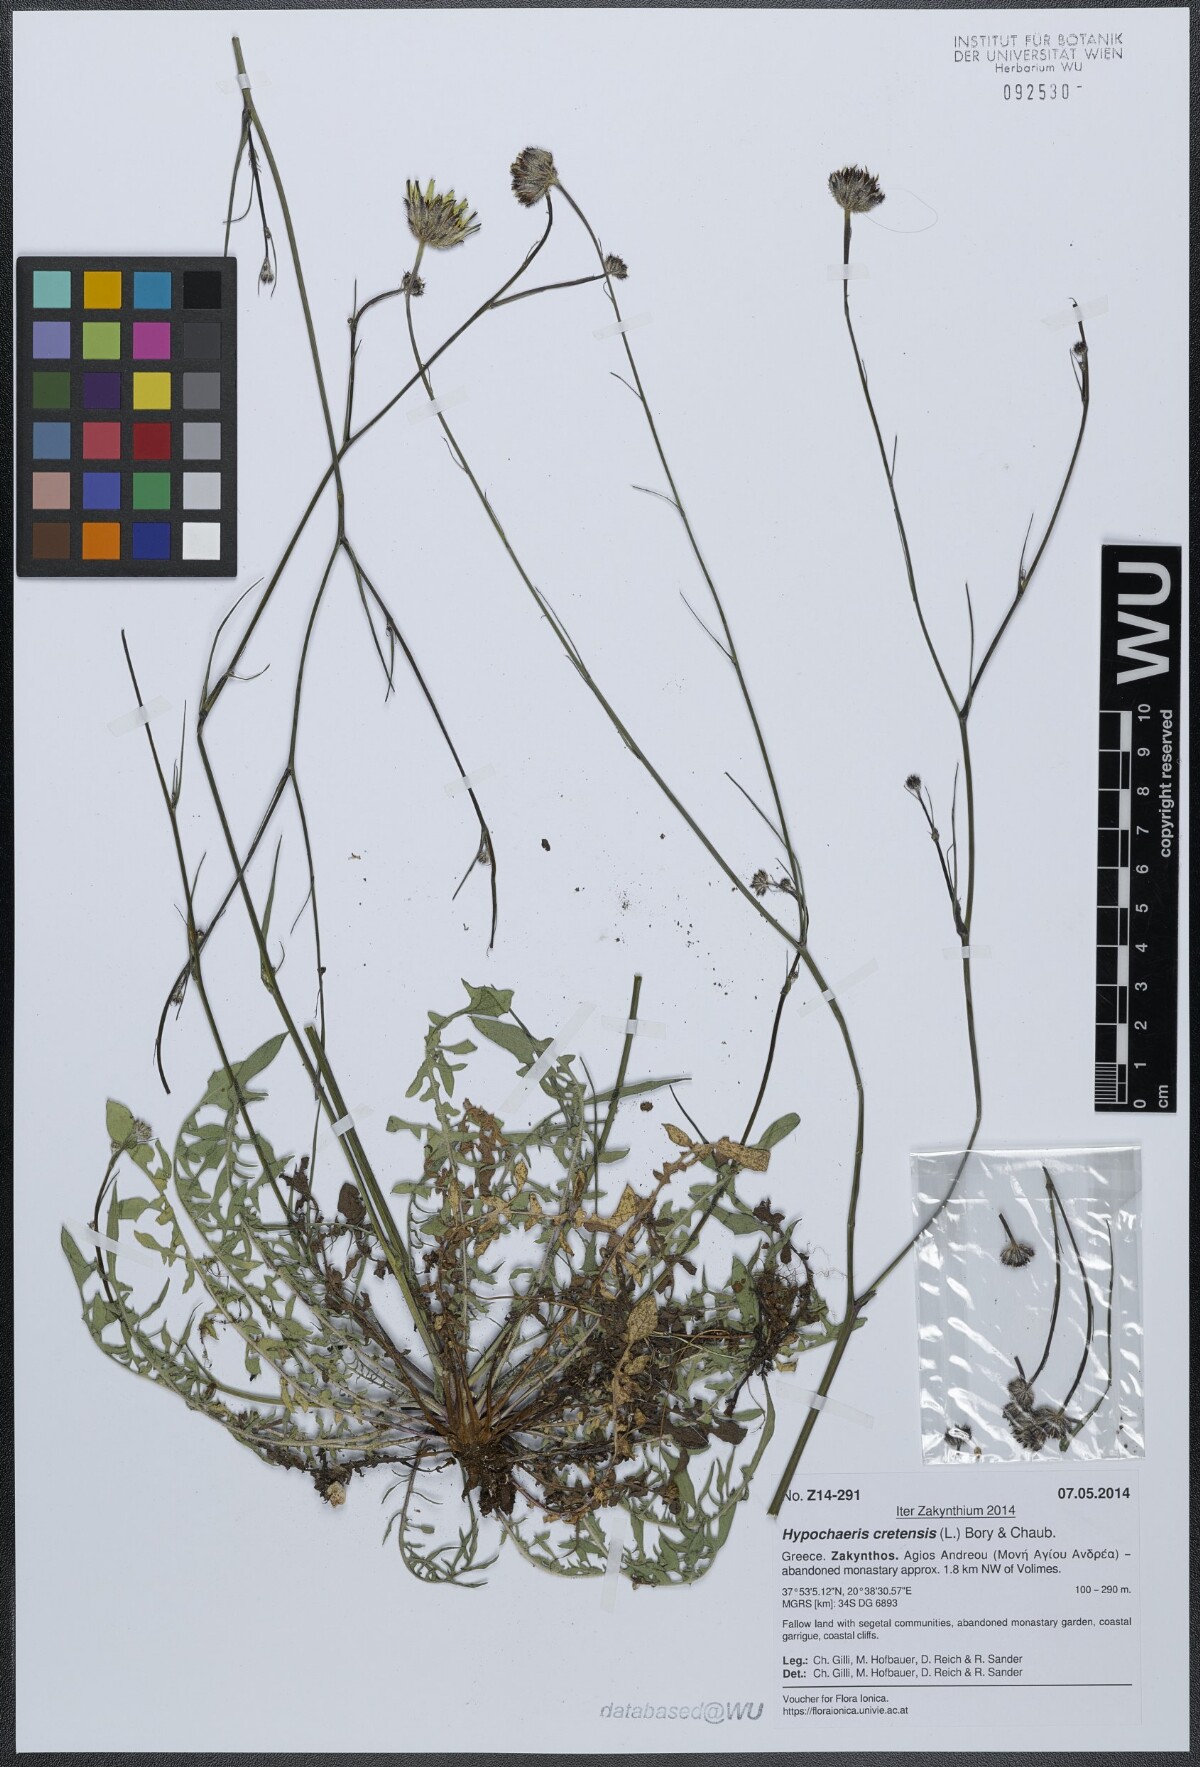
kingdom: Plantae
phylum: Tracheophyta
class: Magnoliopsida
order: Asterales
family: Asteraceae
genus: Hypochaeris
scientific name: Hypochaeris cretensis
